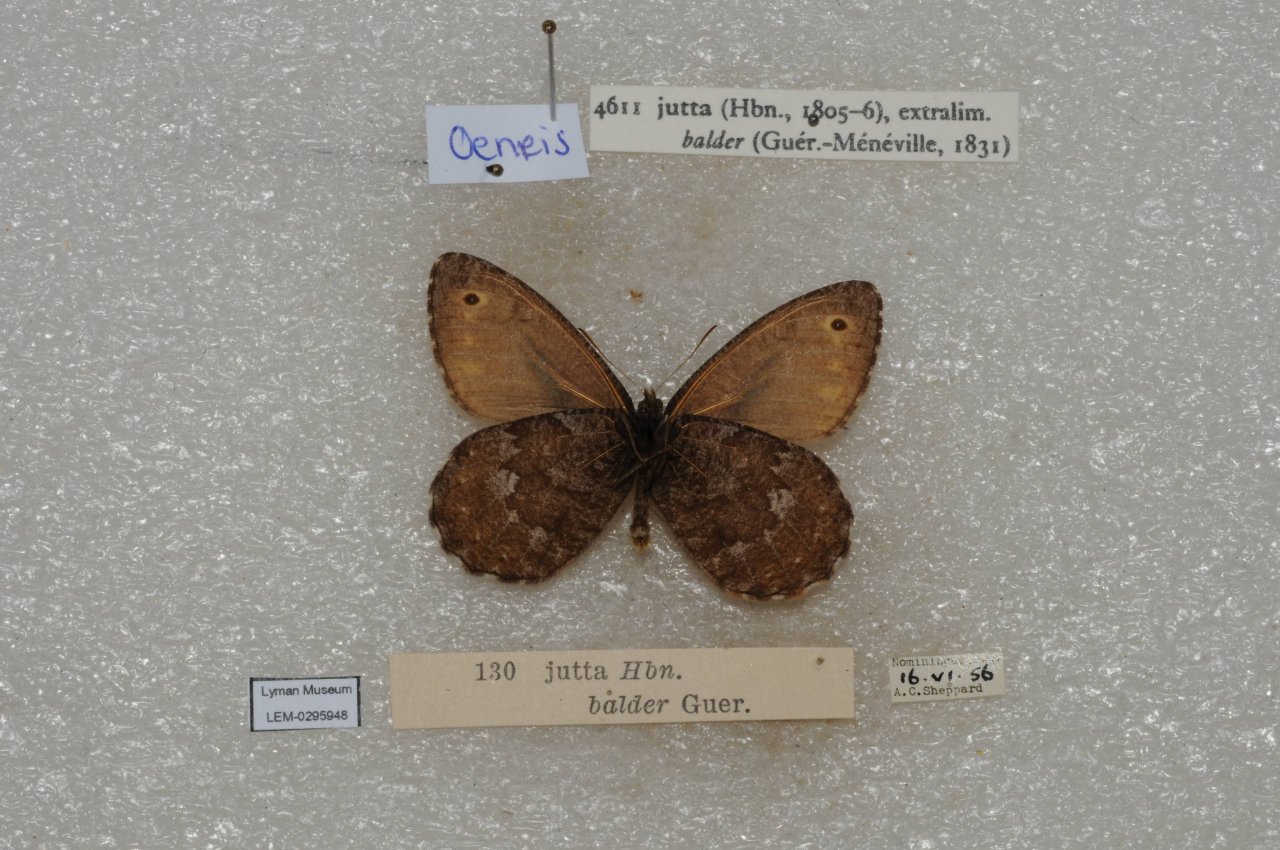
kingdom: Animalia
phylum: Arthropoda
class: Insecta
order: Lepidoptera
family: Nymphalidae
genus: Oeneis
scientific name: Oeneis jutta
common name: Jutta Arctic
